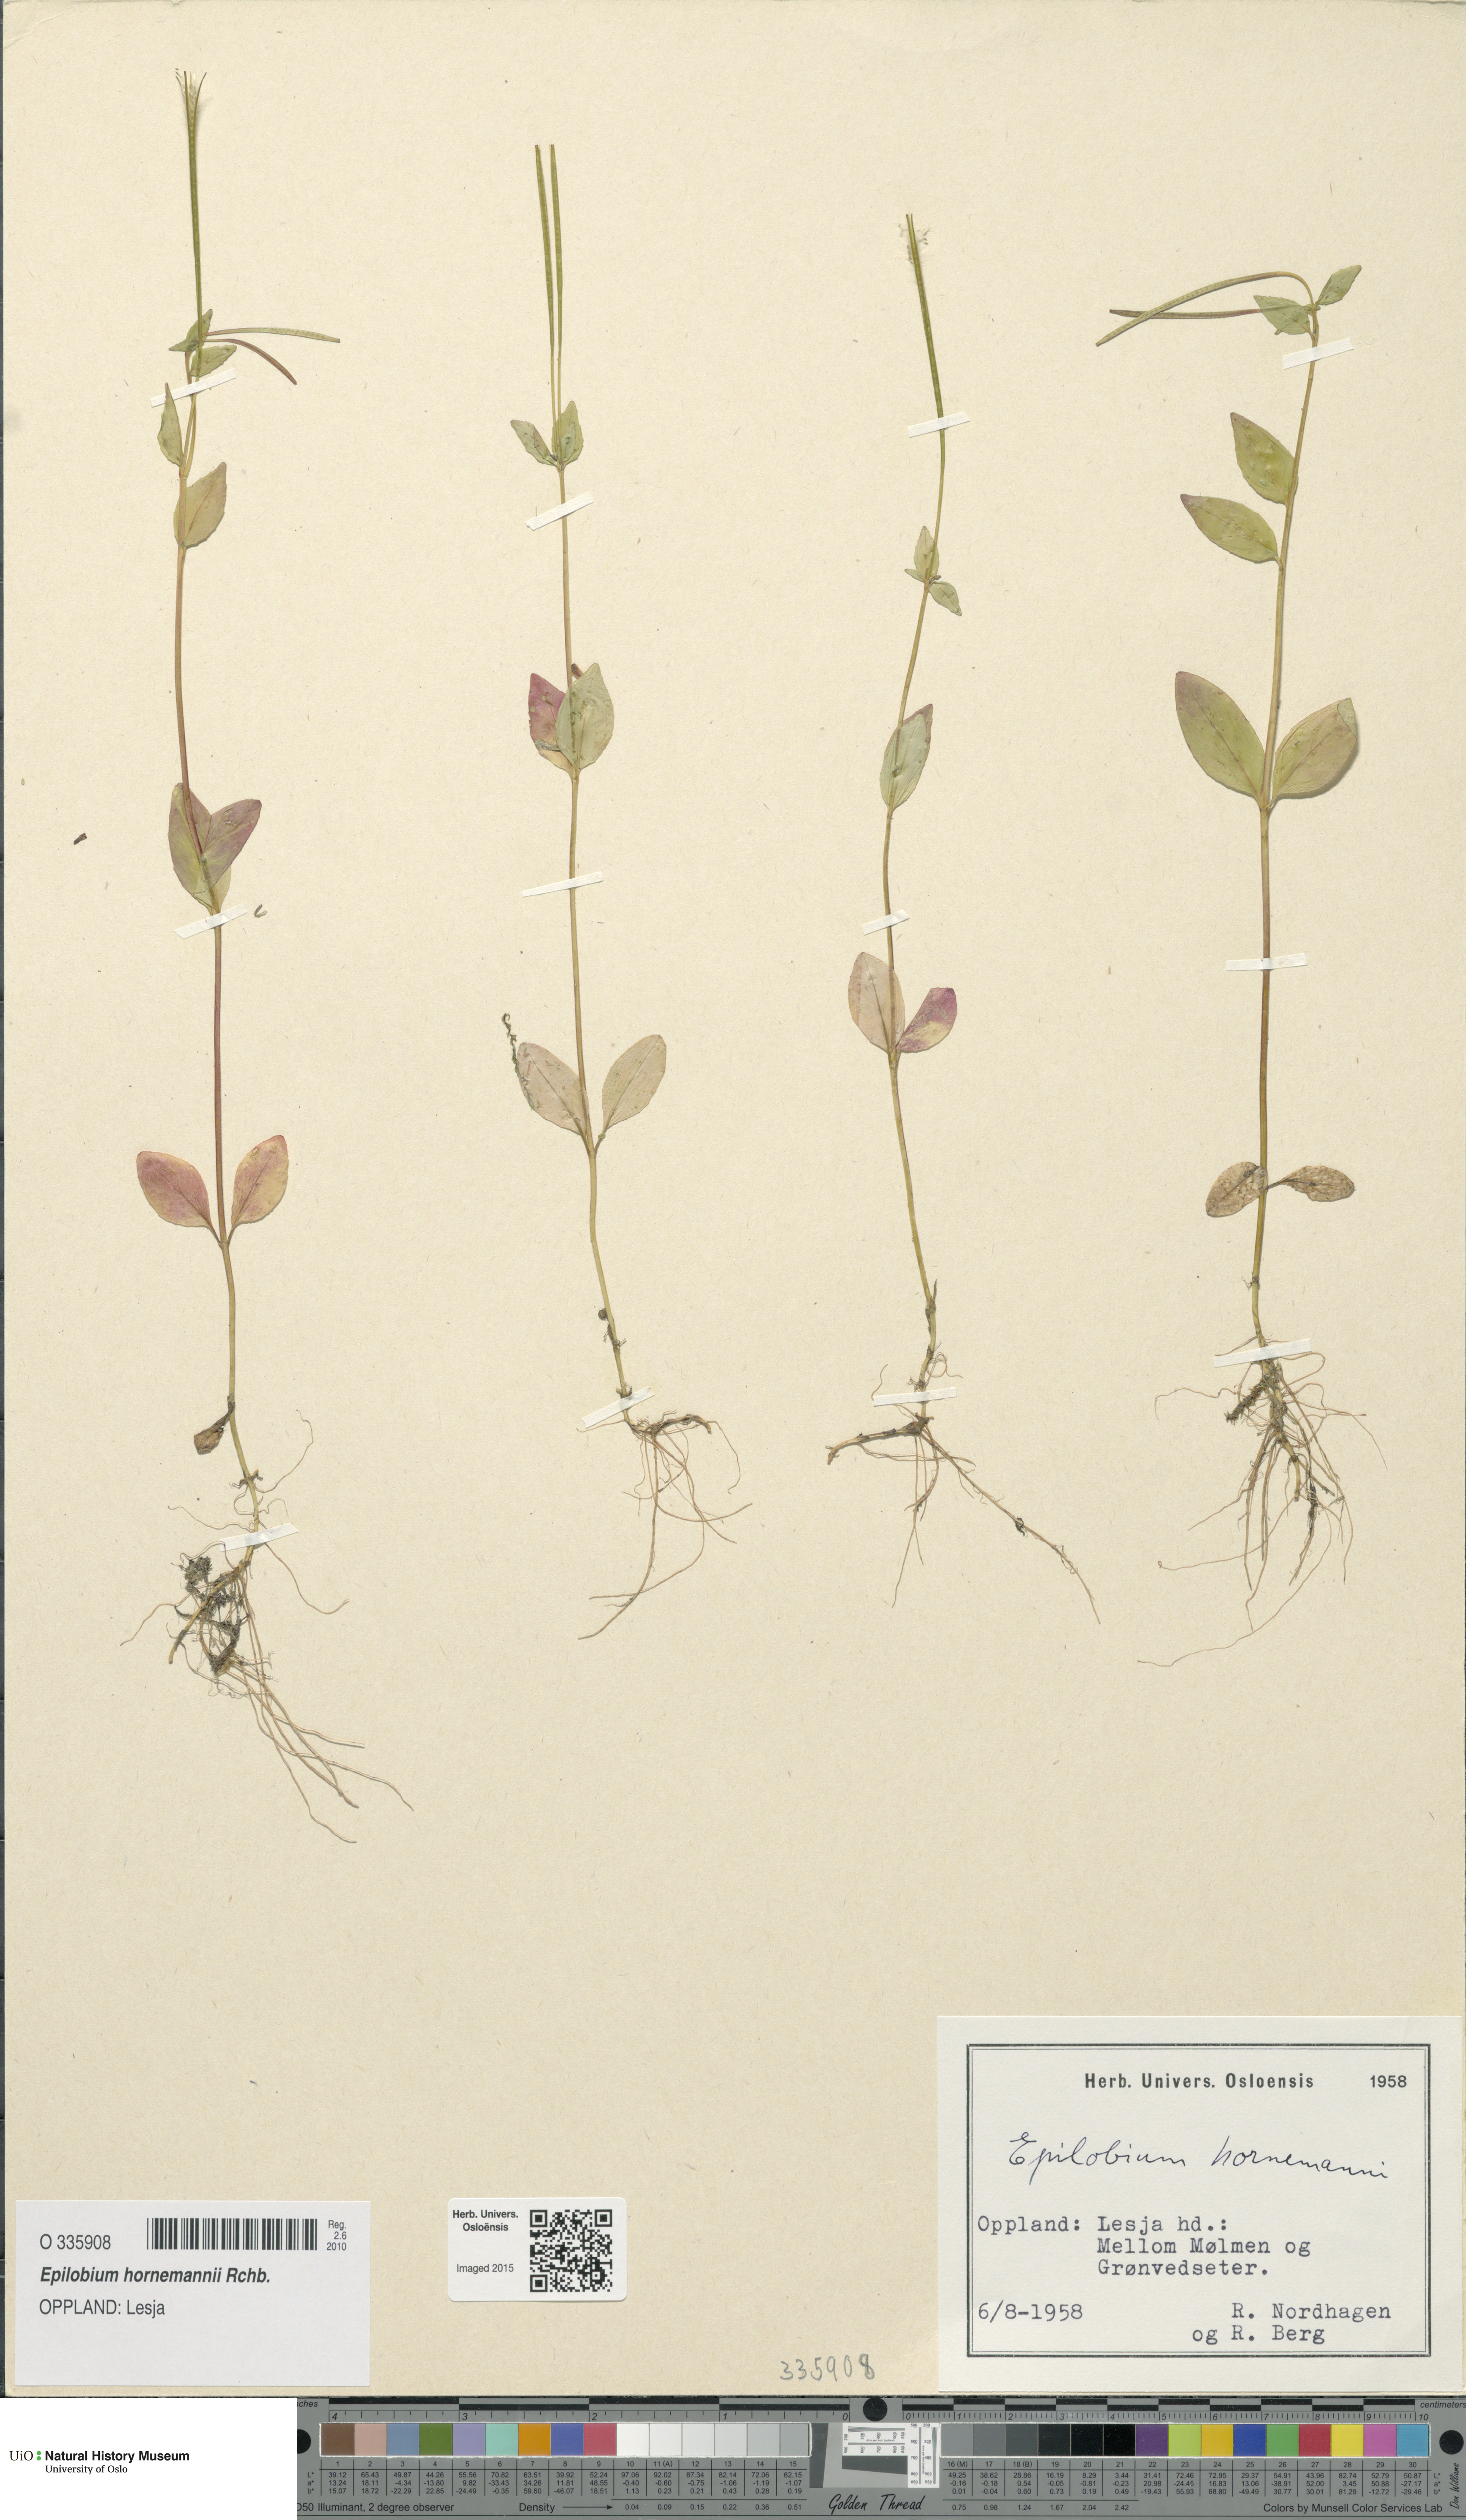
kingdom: Plantae
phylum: Tracheophyta
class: Magnoliopsida
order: Myrtales
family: Onagraceae
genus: Epilobium
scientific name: Epilobium hornemannii
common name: Hornemann's willowherb
